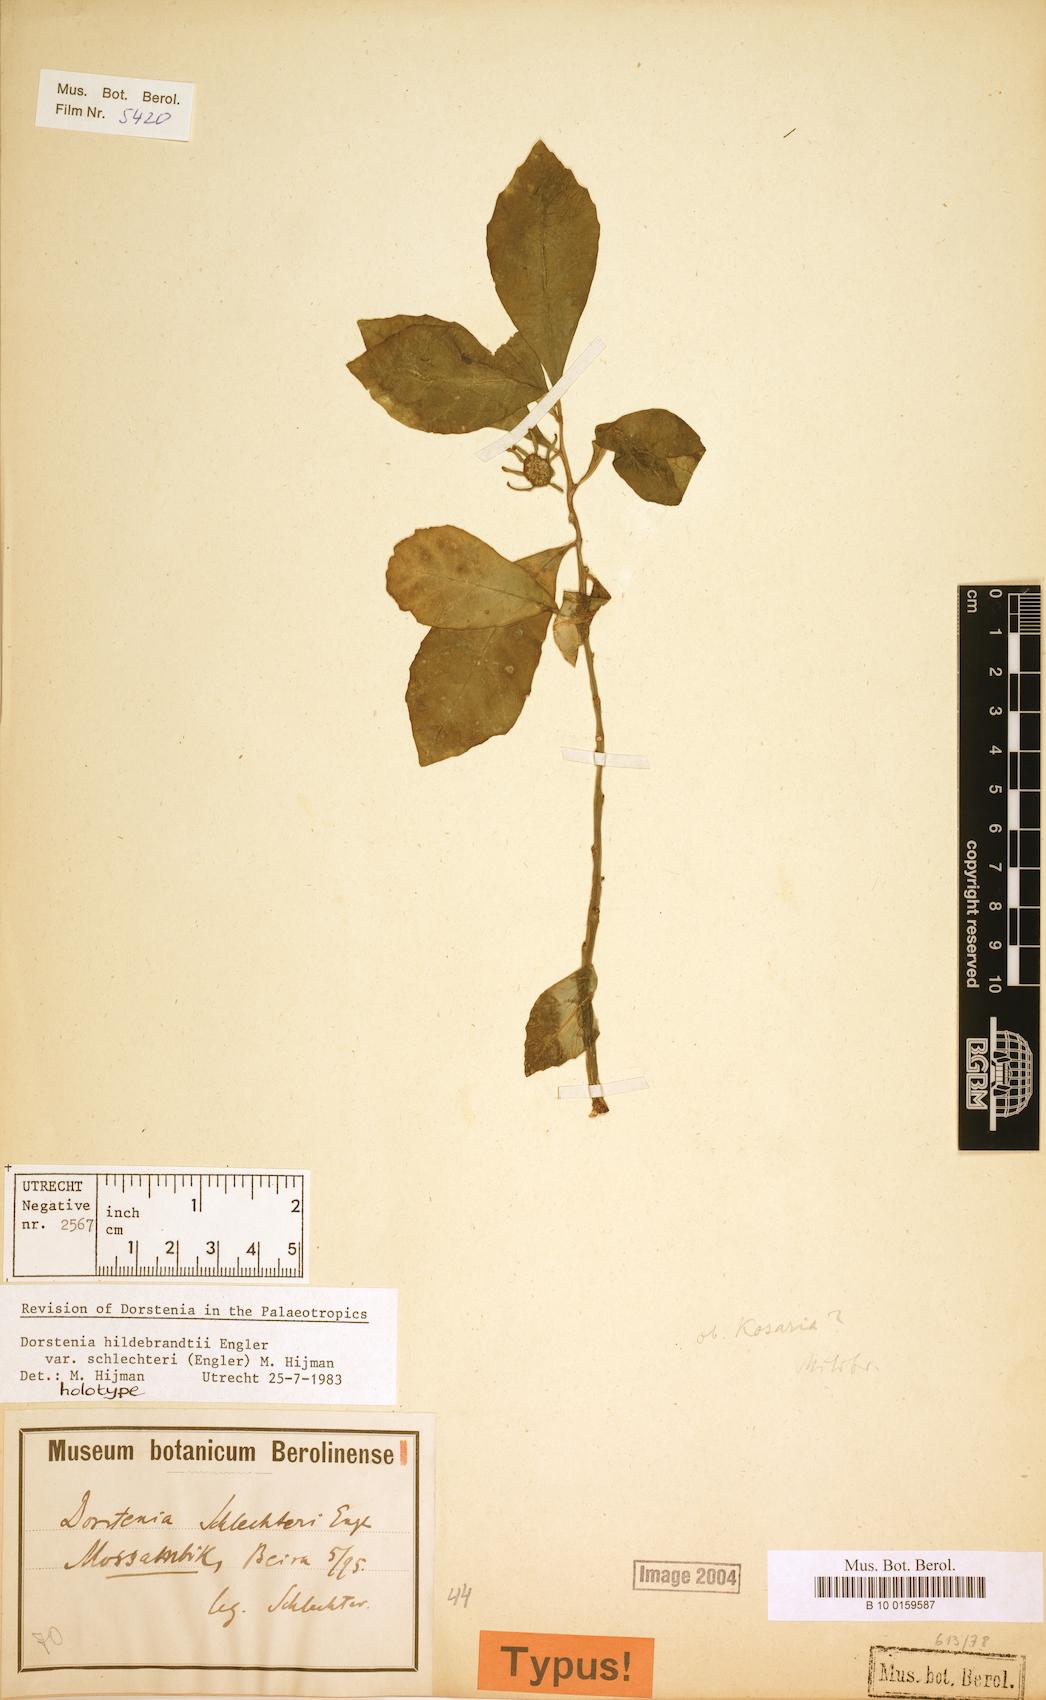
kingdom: Plantae
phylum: Tracheophyta
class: Magnoliopsida
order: Rosales
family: Moraceae
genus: Dorstenia
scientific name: Dorstenia hildebrandtii
